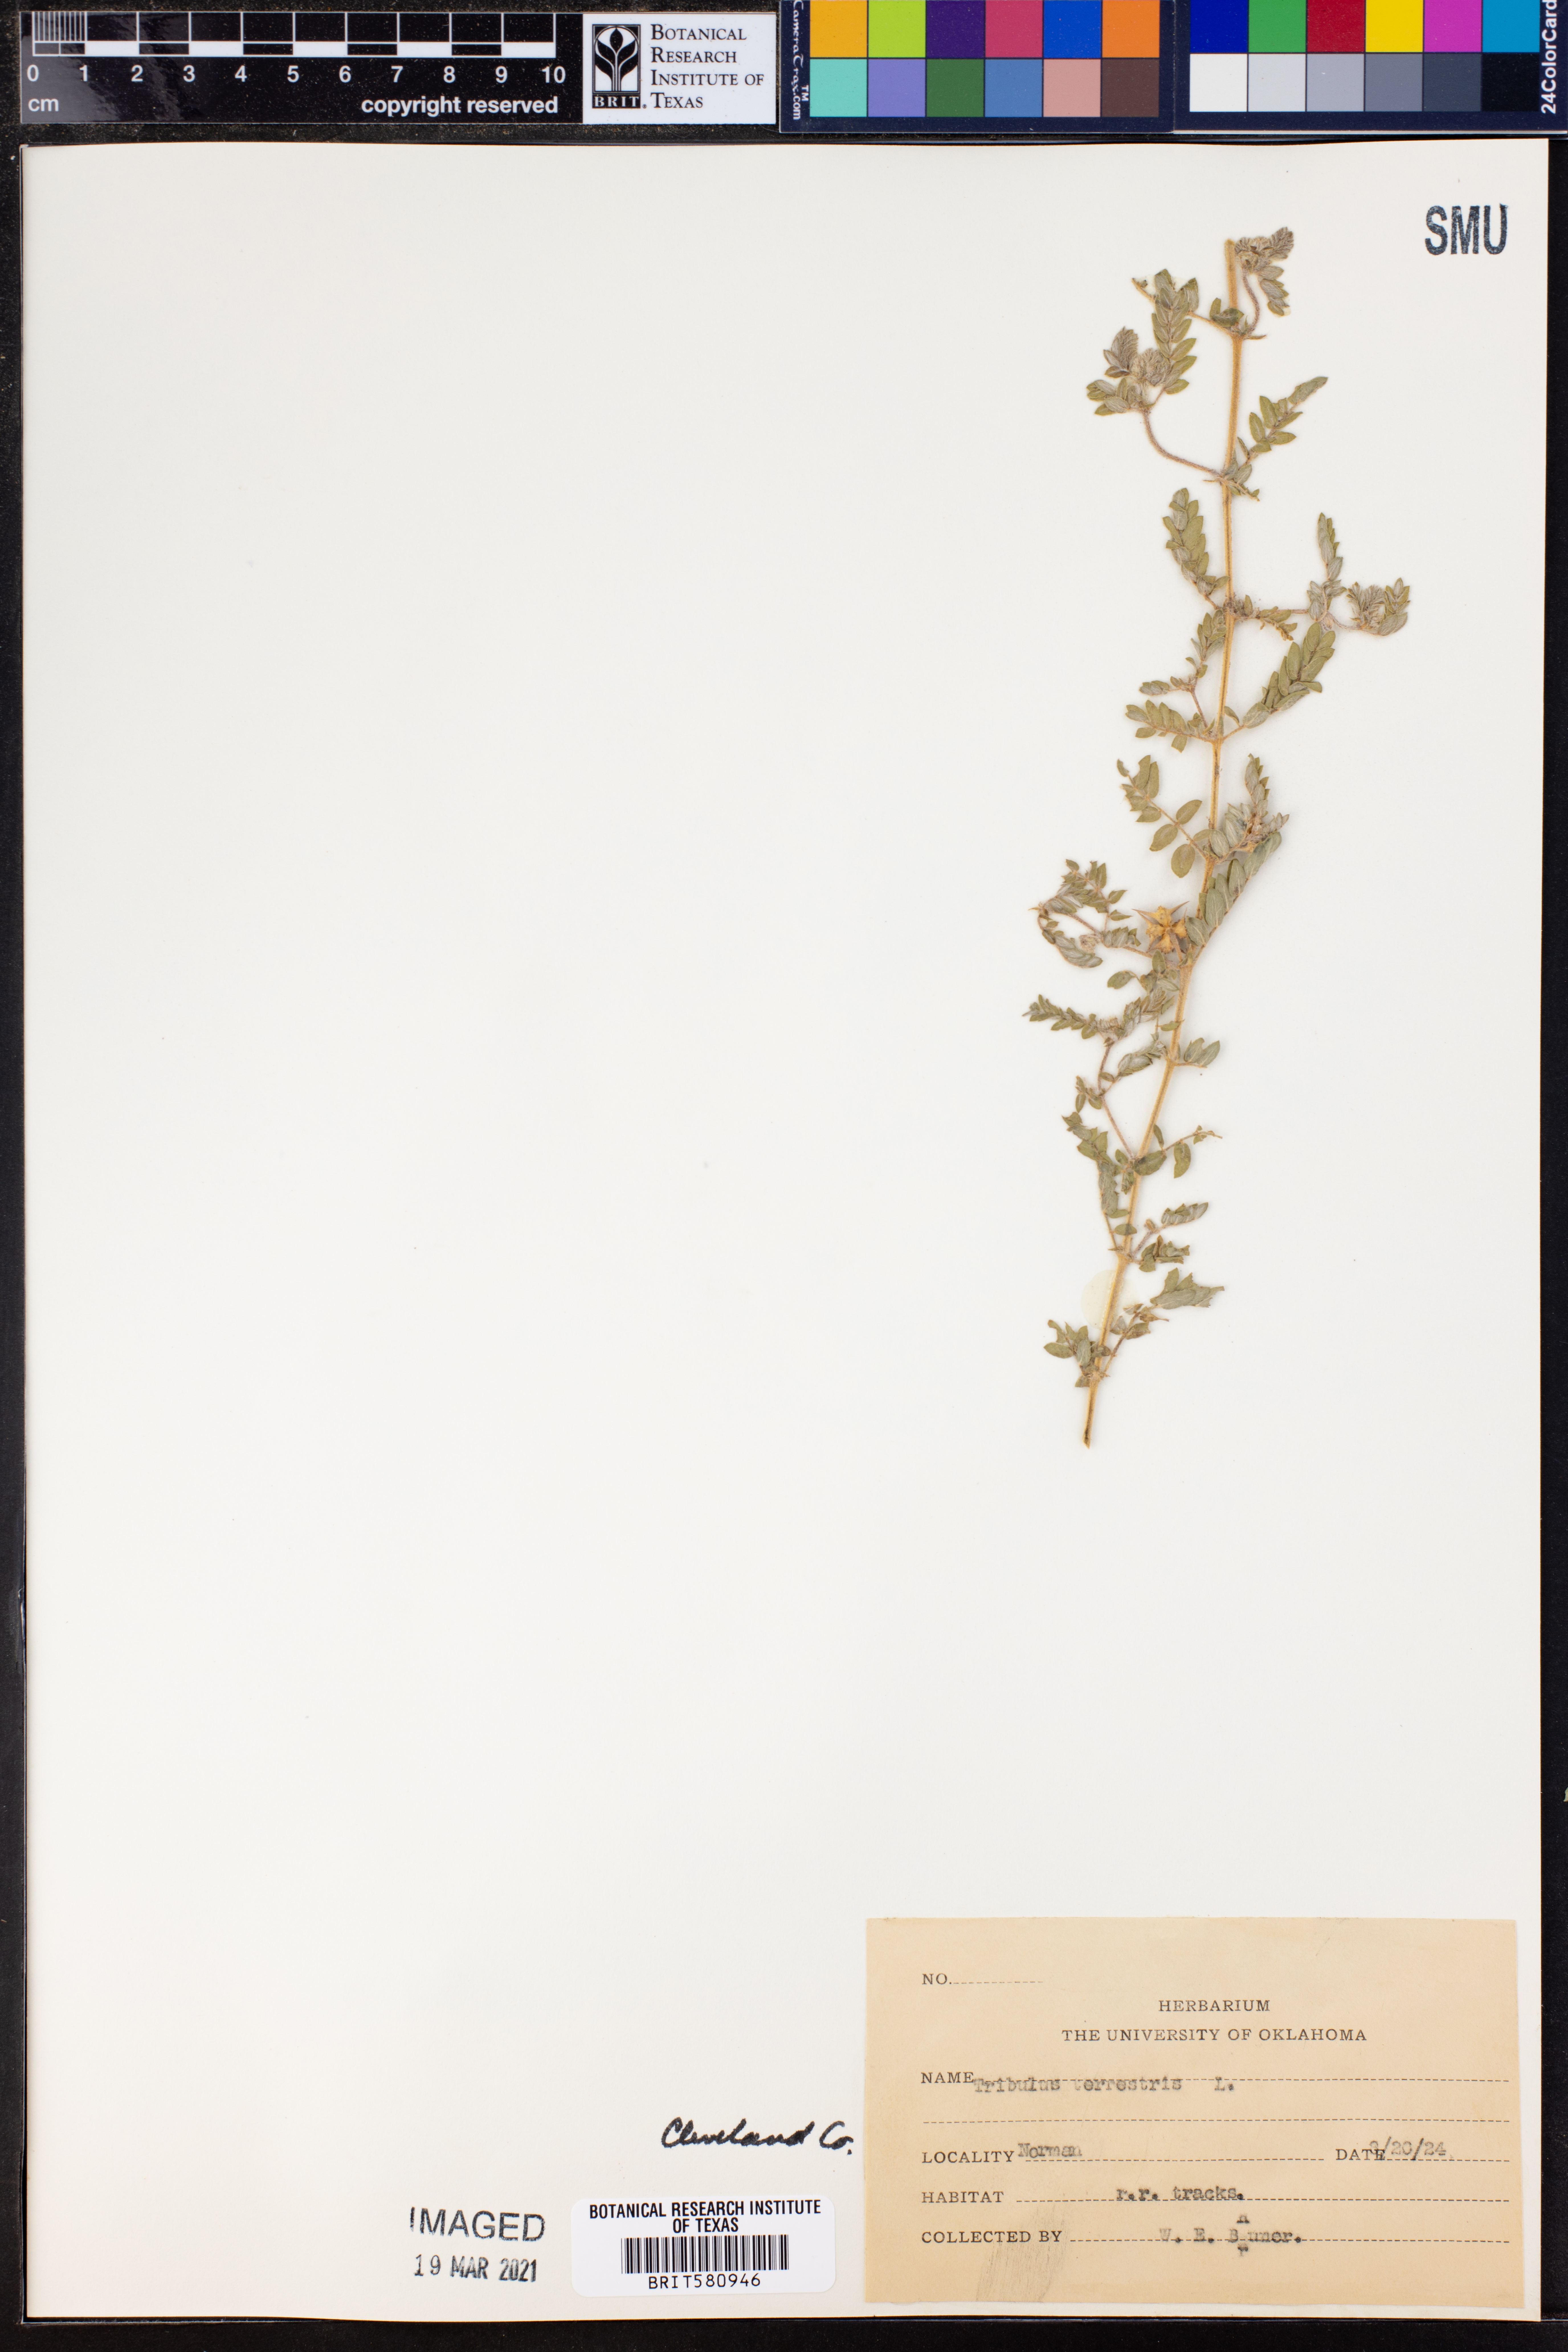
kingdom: Plantae
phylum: Tracheophyta
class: Magnoliopsida
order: Zygophyllales
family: Zygophyllaceae
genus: Tribulus
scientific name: Tribulus terrestris
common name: Puncturevine
